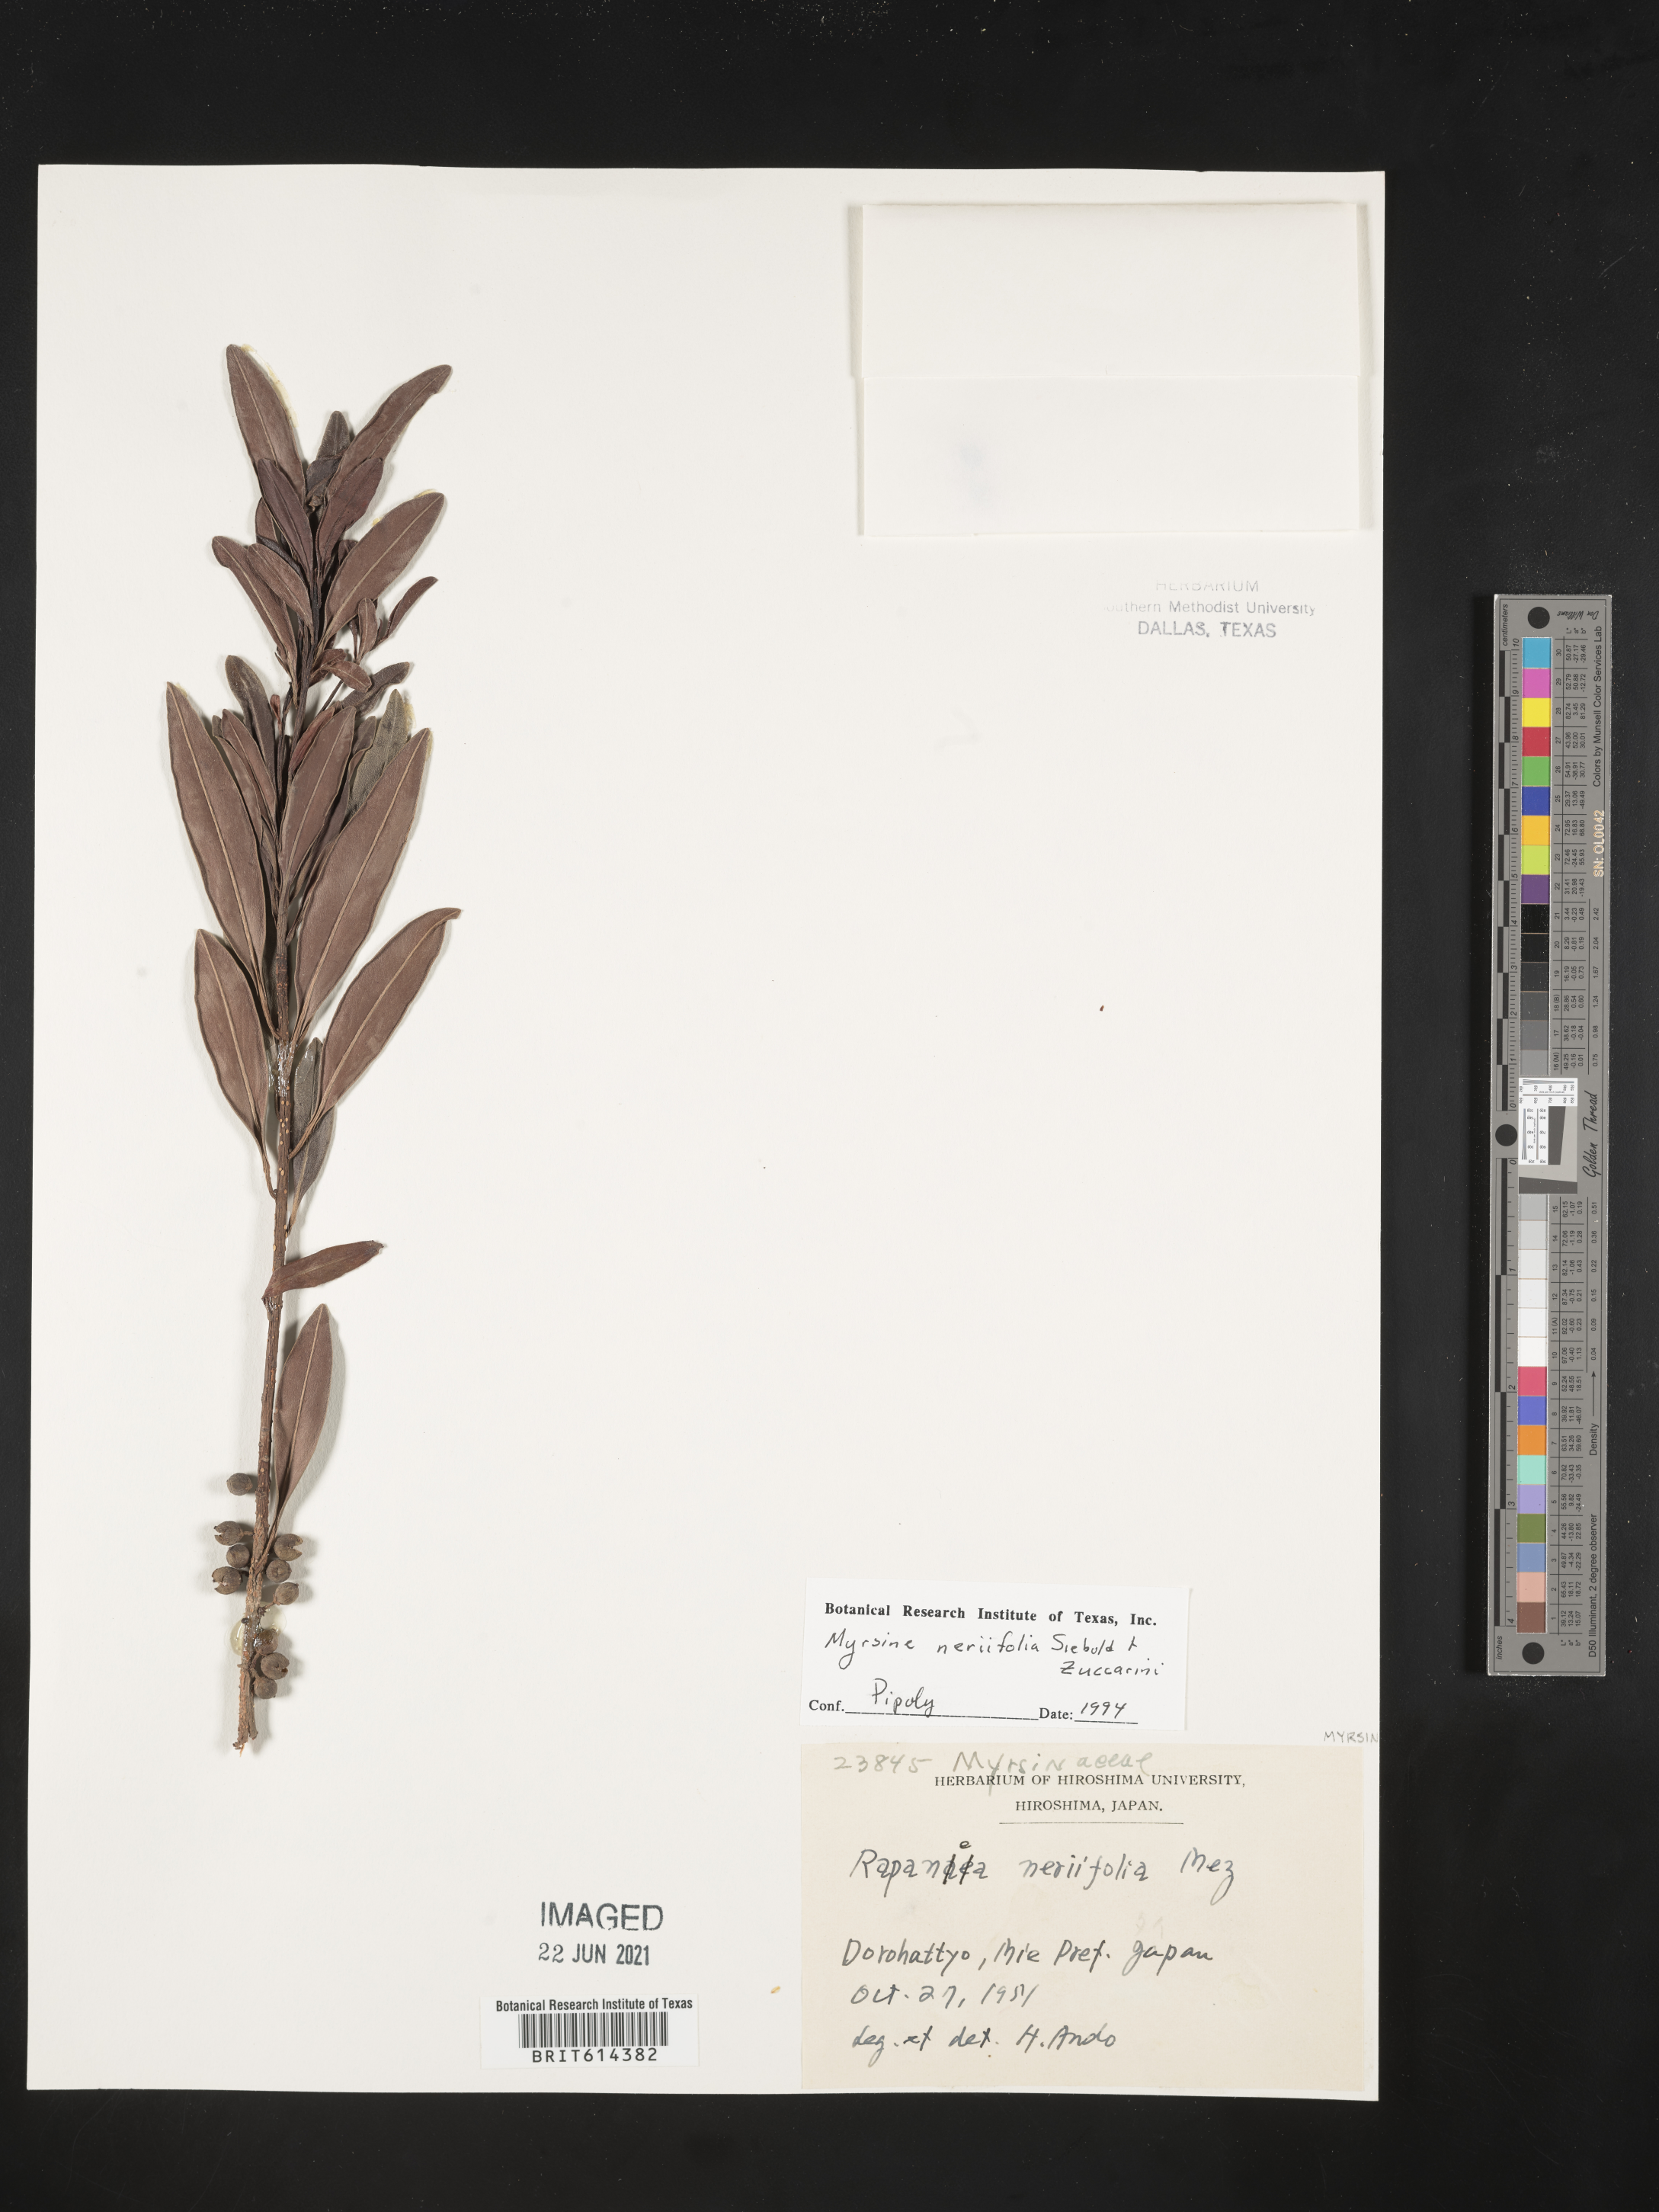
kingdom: Plantae
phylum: Tracheophyta
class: Magnoliopsida
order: Ericales
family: Primulaceae
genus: Myrsine
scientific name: Myrsine seguinii
